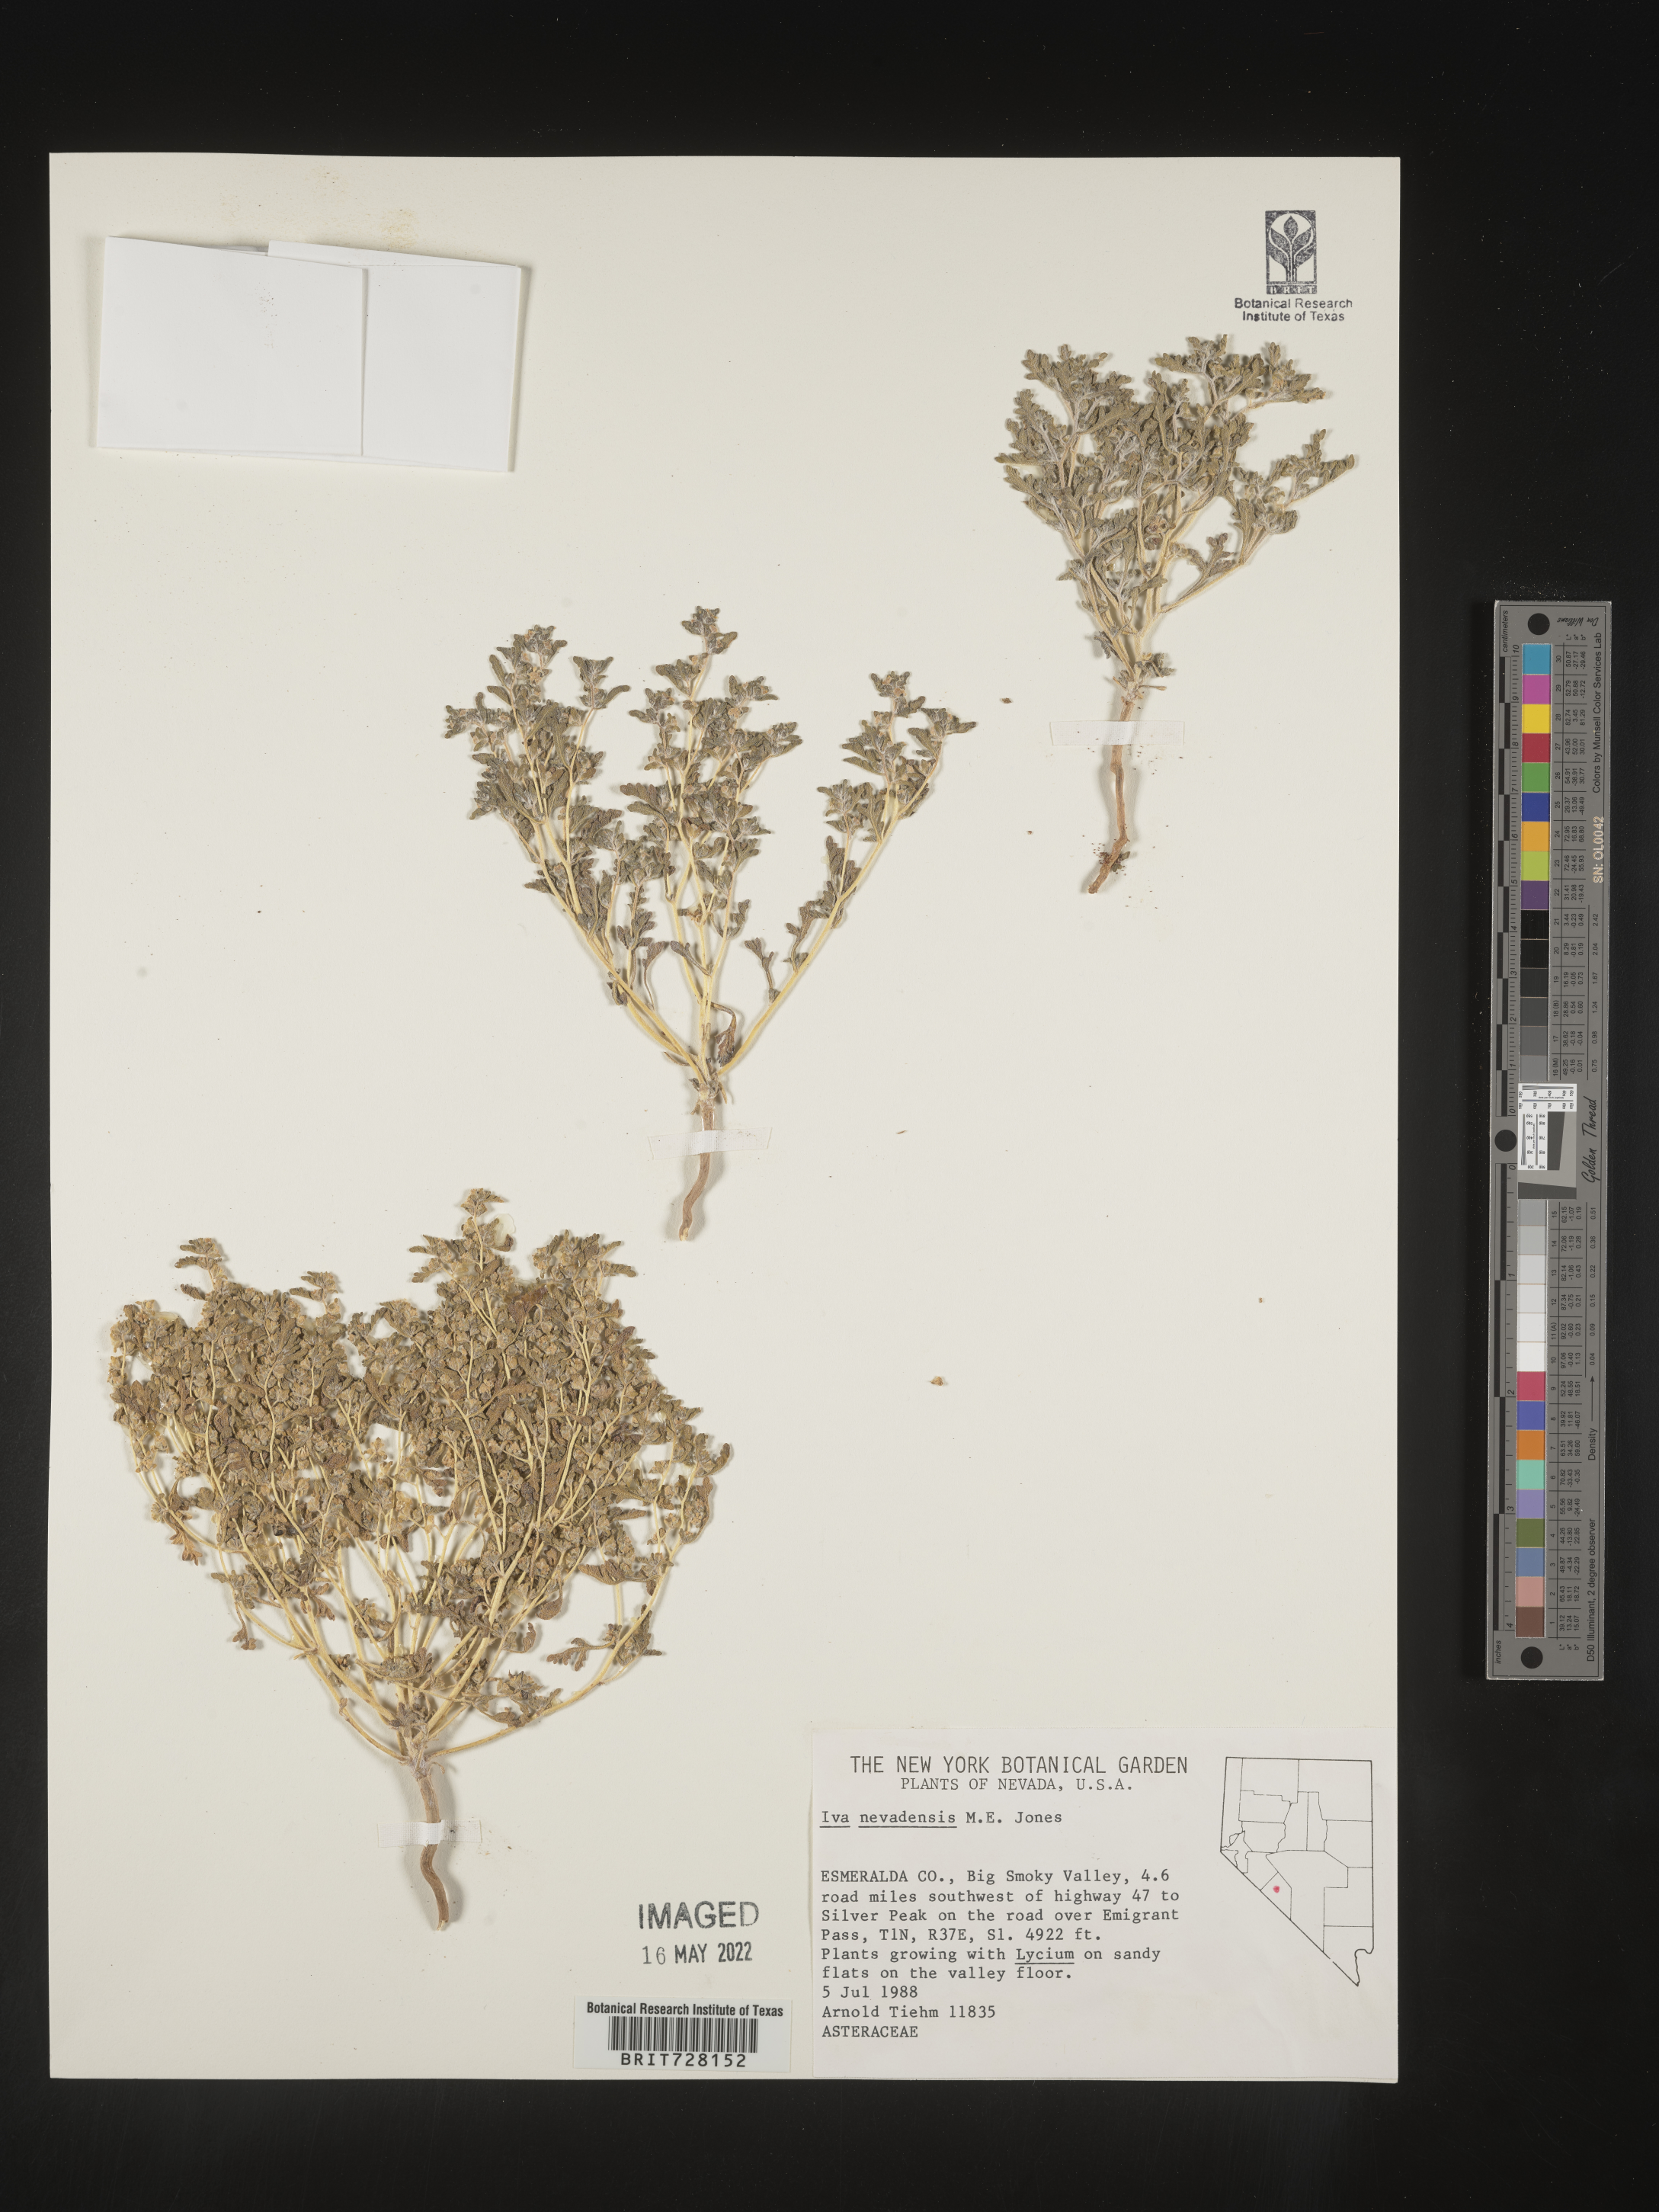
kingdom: Plantae
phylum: Tracheophyta
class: Magnoliopsida
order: Asterales
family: Asteraceae
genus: Euphrosyne
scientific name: Euphrosyne nevadensis
